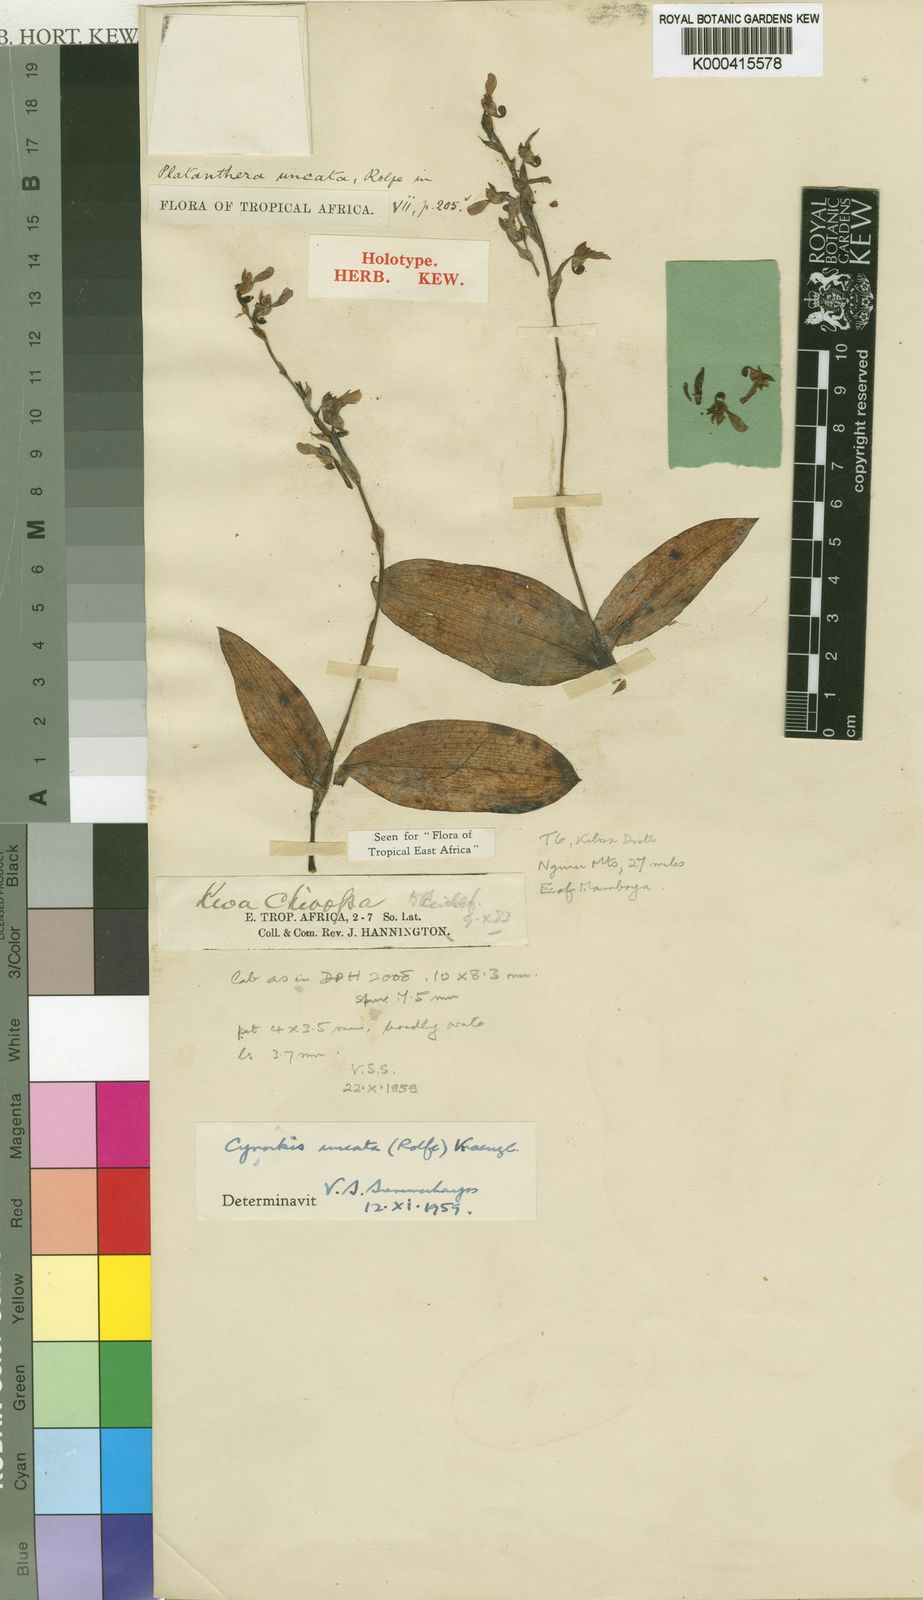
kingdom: Plantae
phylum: Tracheophyta
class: Liliopsida
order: Asparagales
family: Orchidaceae
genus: Cynorkis
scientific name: Cynorkis
